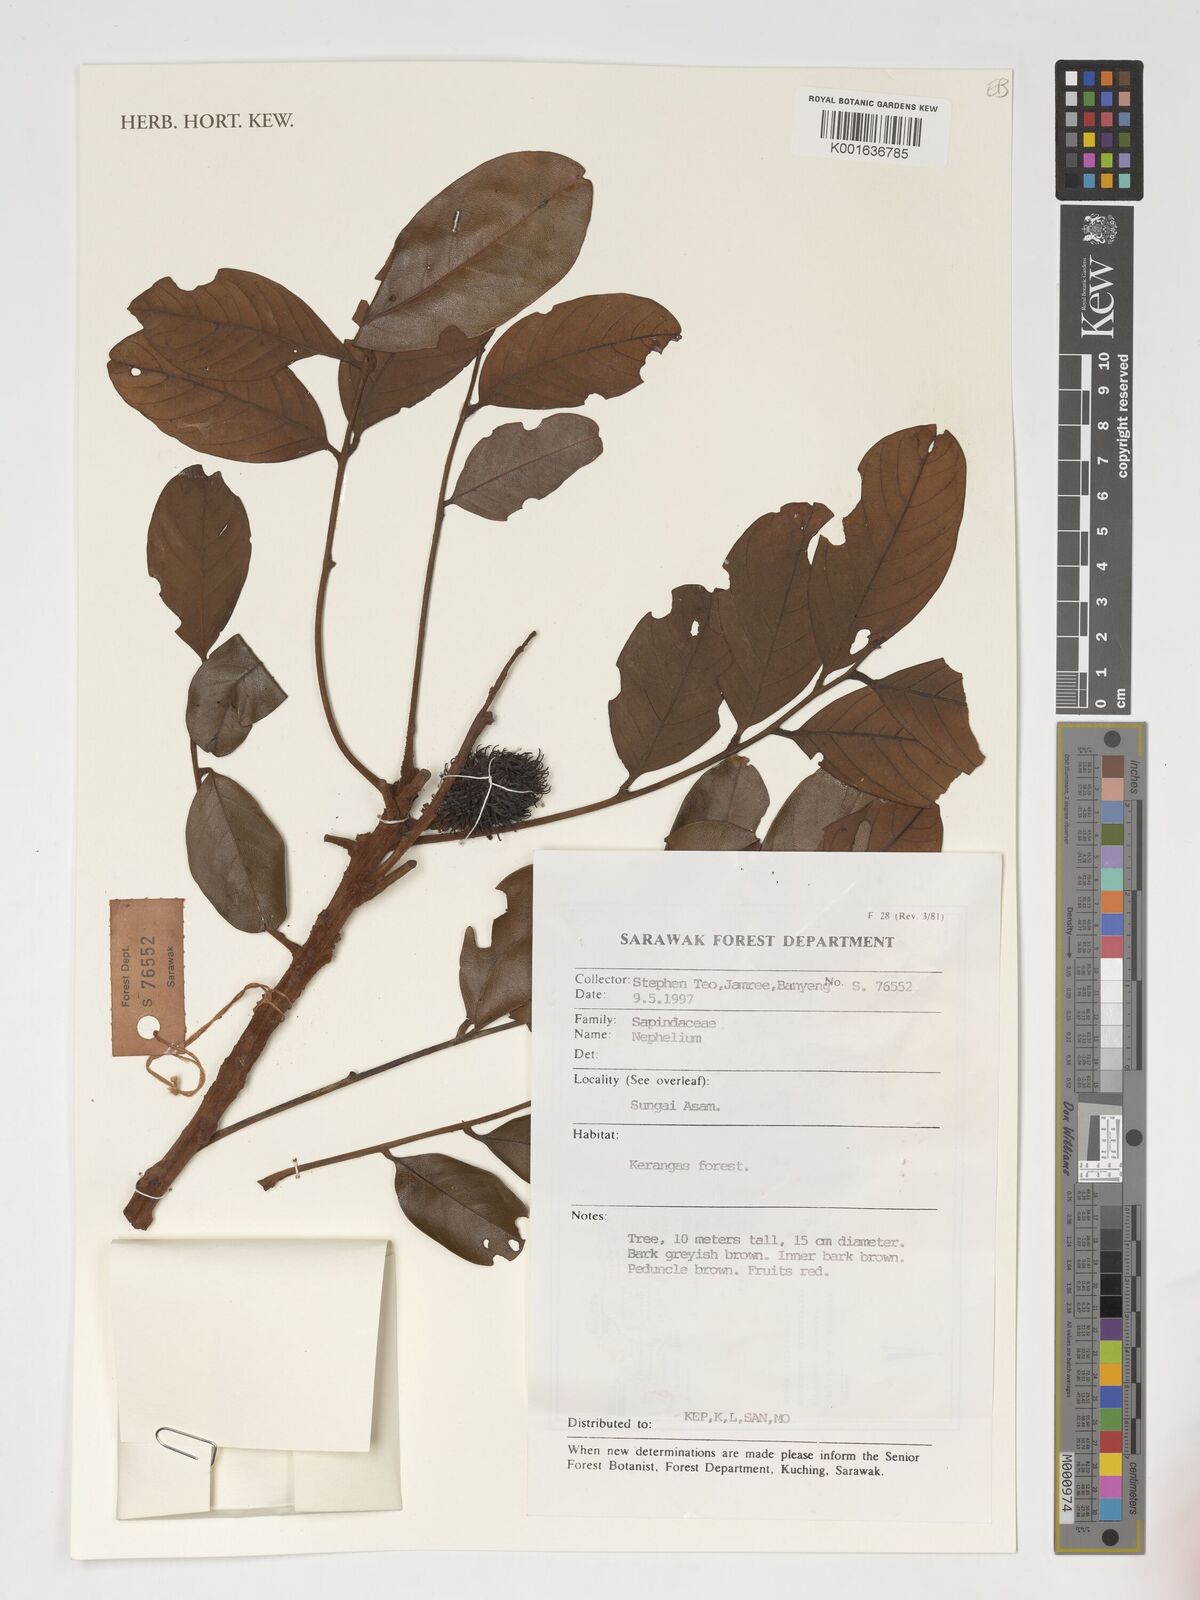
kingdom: Plantae
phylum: Tracheophyta
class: Magnoliopsida
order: Sapindales
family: Sapindaceae
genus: Nephelium
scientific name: Nephelium
